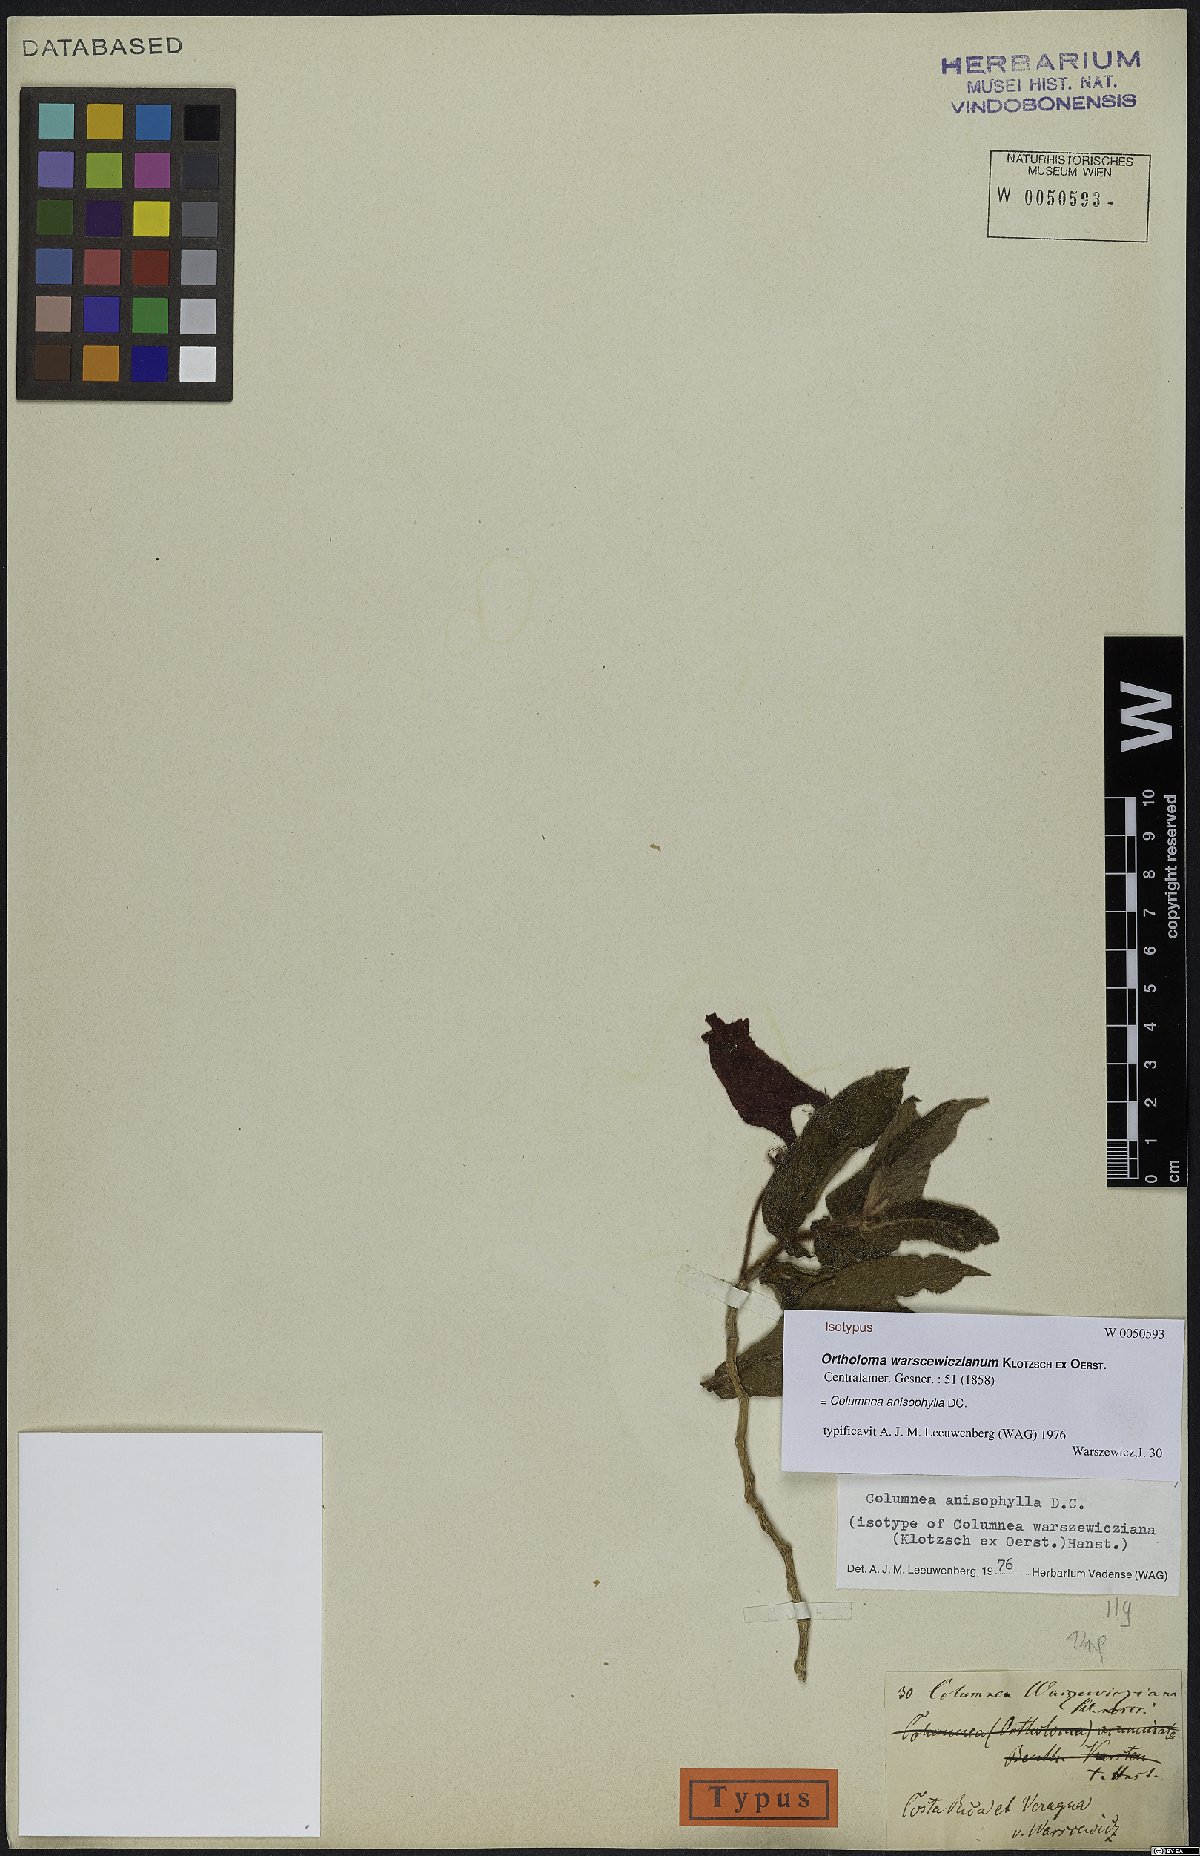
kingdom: Plantae
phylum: Tracheophyta
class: Magnoliopsida
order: Lamiales
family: Gesneriaceae
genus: Columnea
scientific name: Columnea anisophylla
